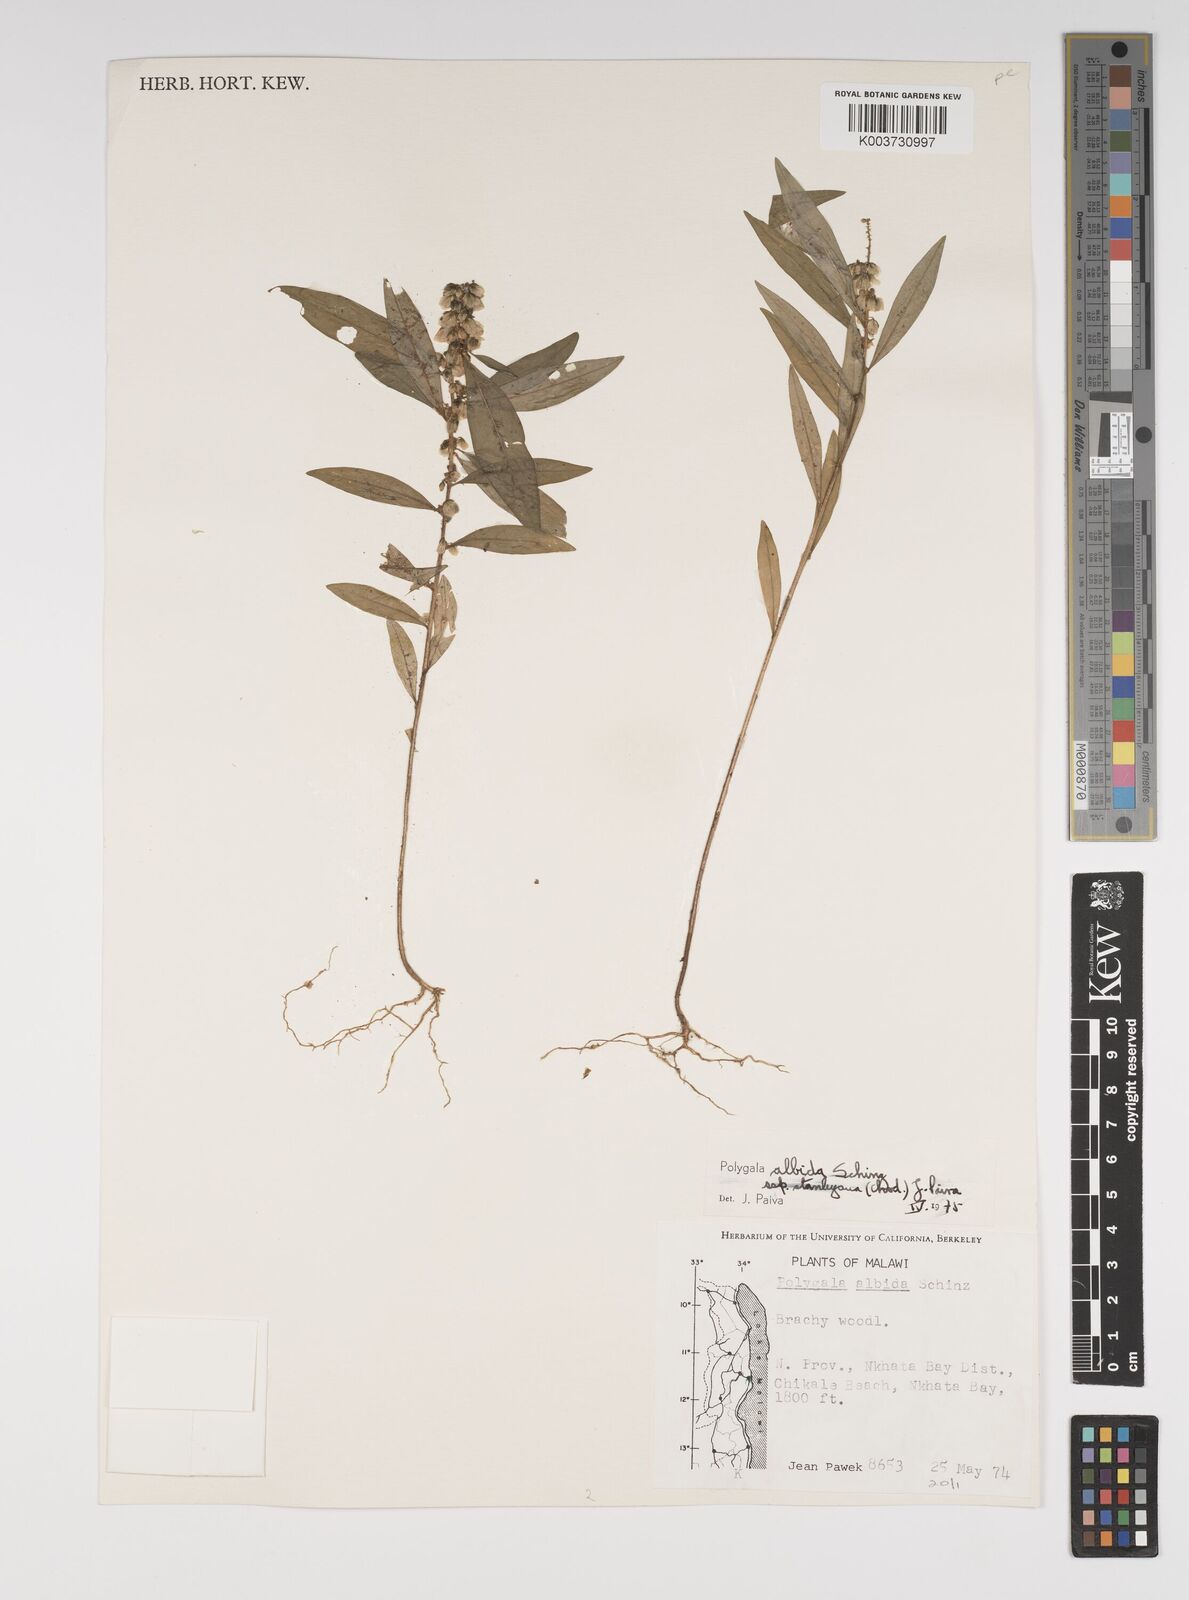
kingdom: Plantae
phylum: Tracheophyta
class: Magnoliopsida
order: Fabales
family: Polygalaceae
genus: Polygala
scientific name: Polygala albida
